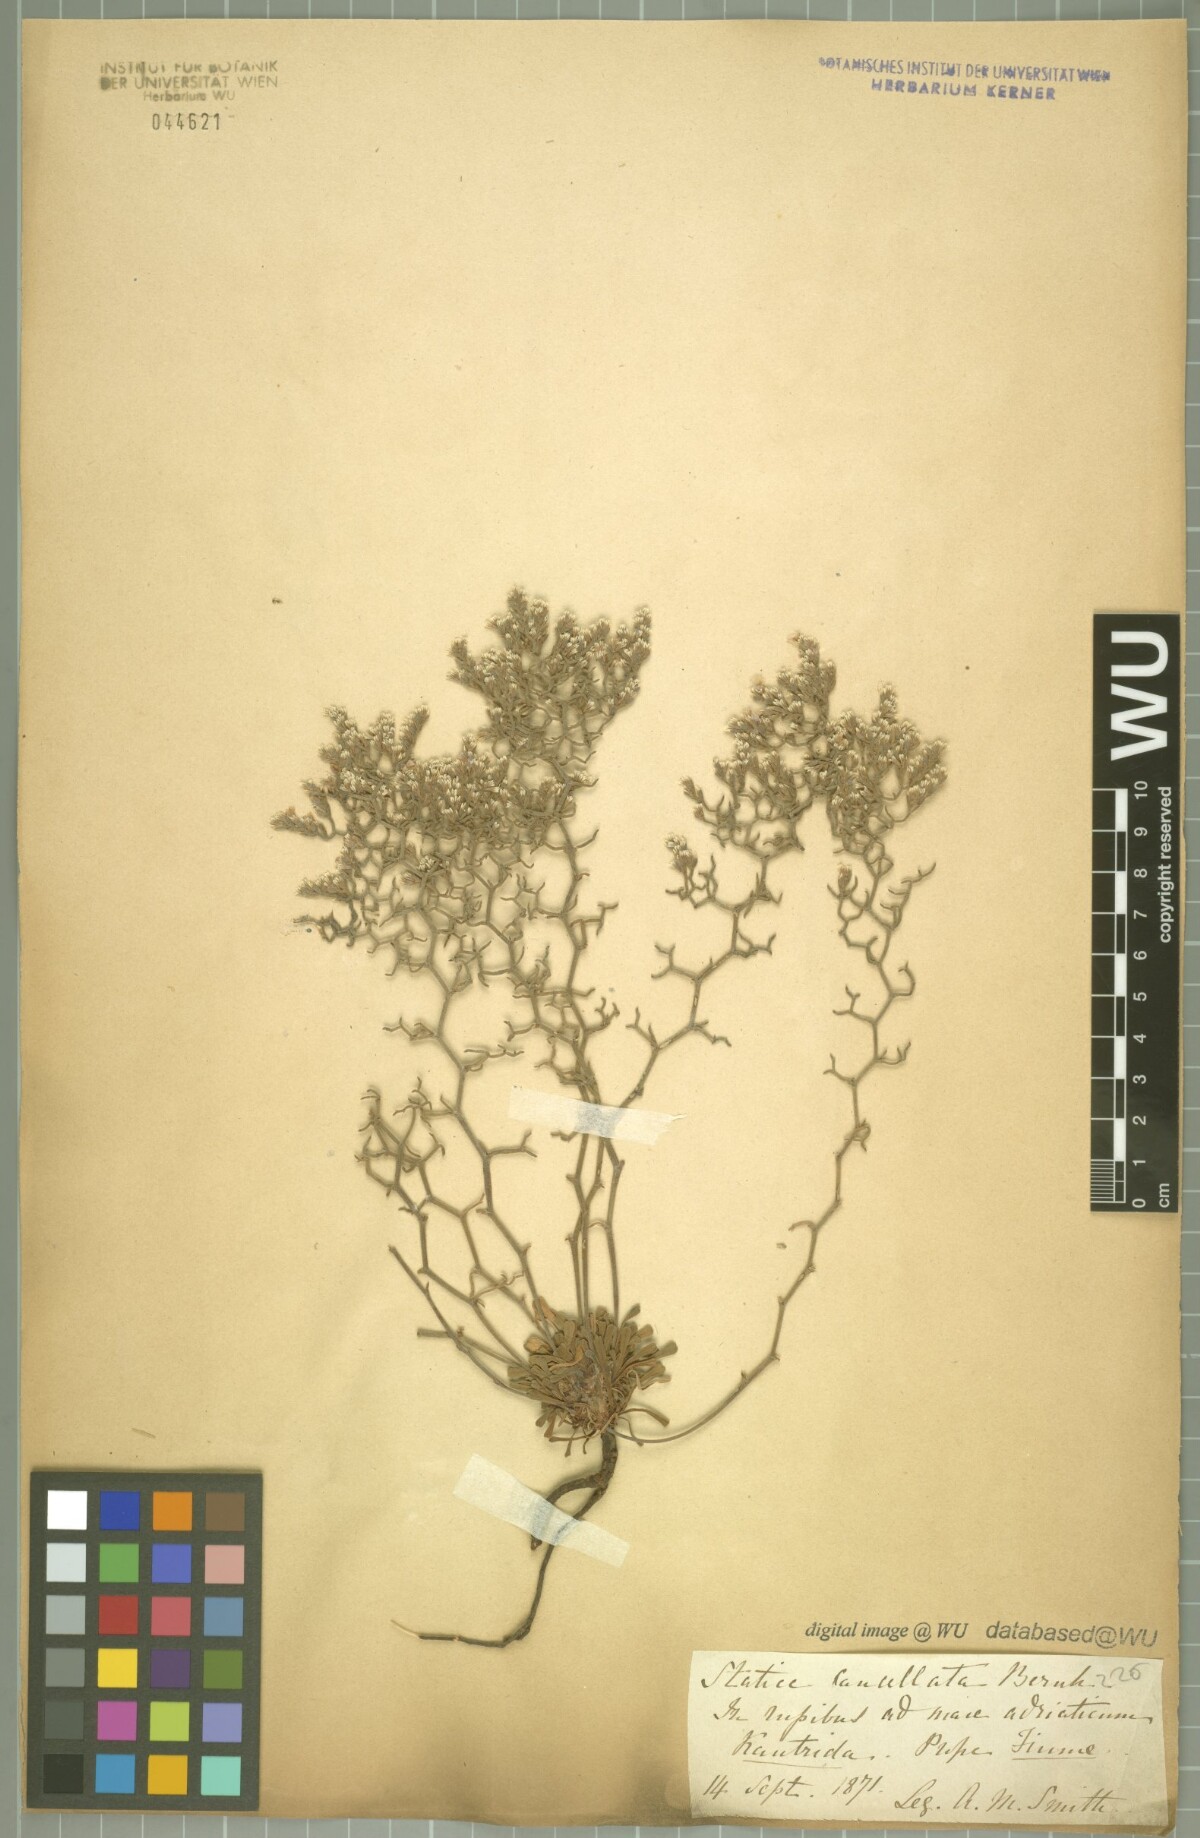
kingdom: Plantae
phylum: Tracheophyta
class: Magnoliopsida
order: Caryophyllales
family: Plumbaginaceae
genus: Limonium
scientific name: Limonium cancellatum
